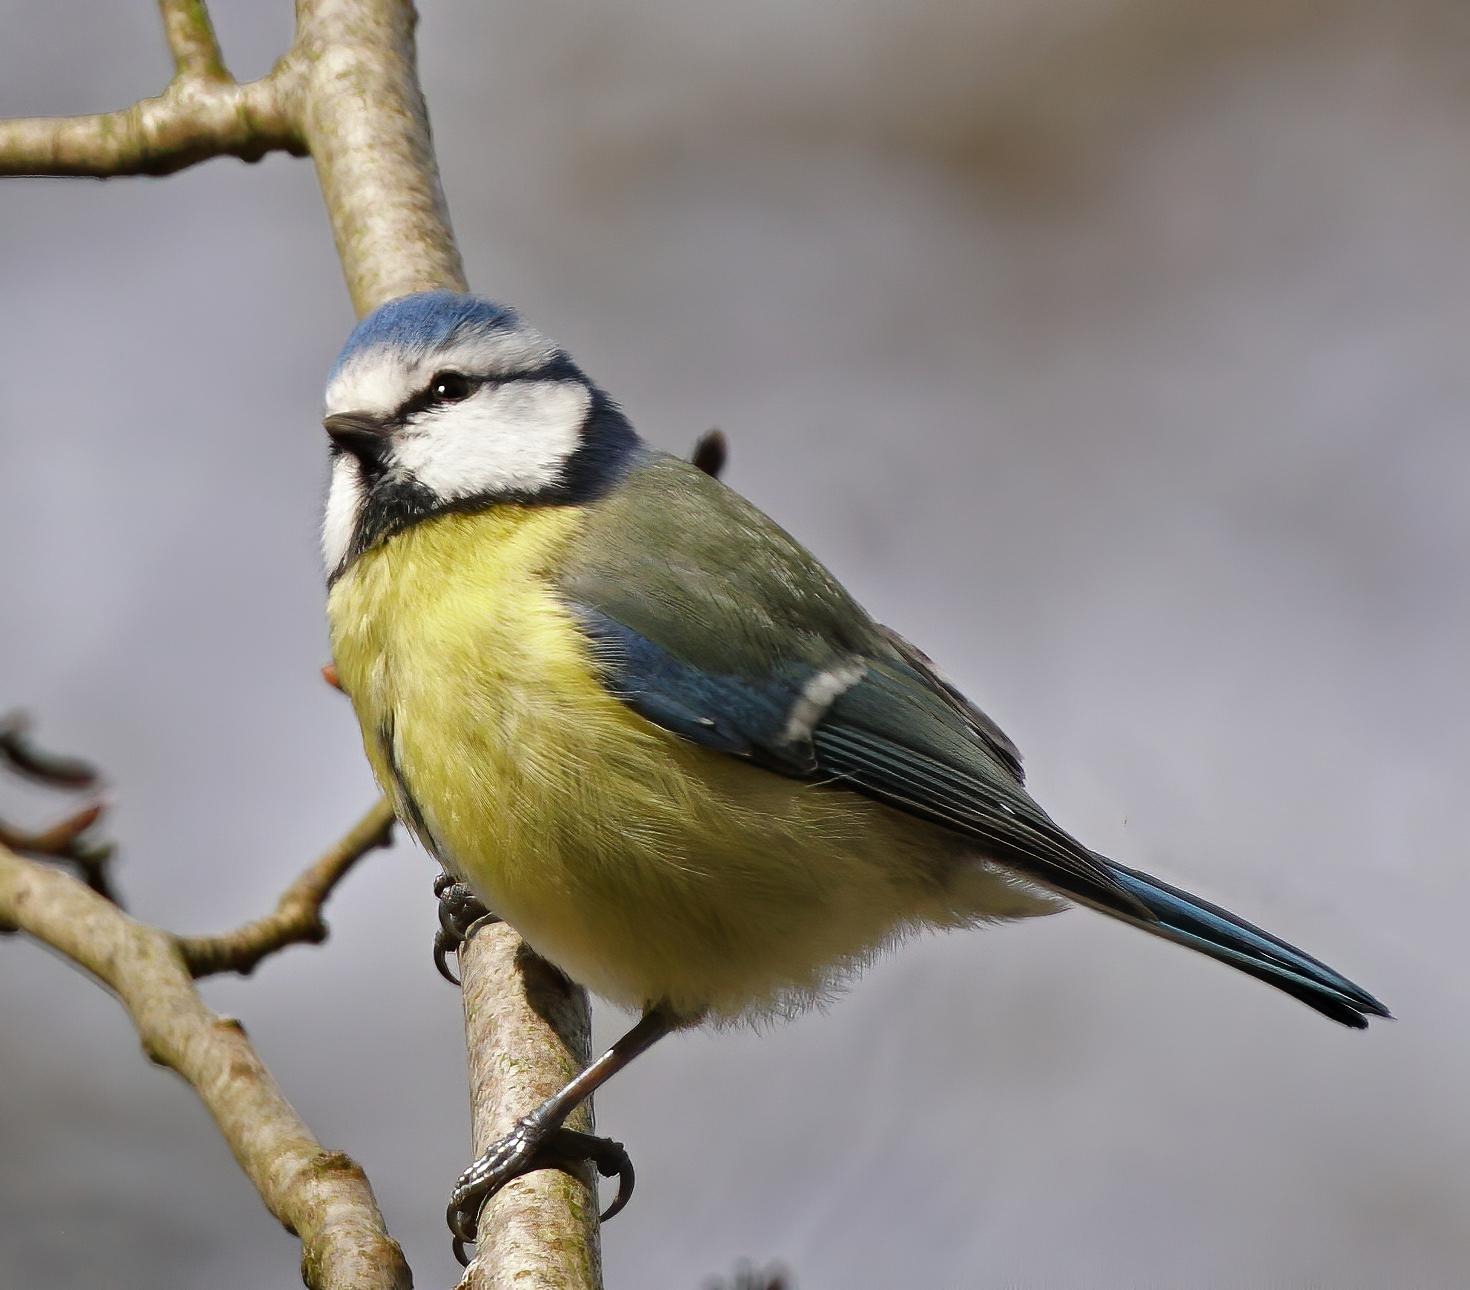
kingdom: Animalia
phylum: Chordata
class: Aves
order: Passeriformes
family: Paridae
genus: Cyanistes
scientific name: Cyanistes caeruleus
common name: Blåmejse
